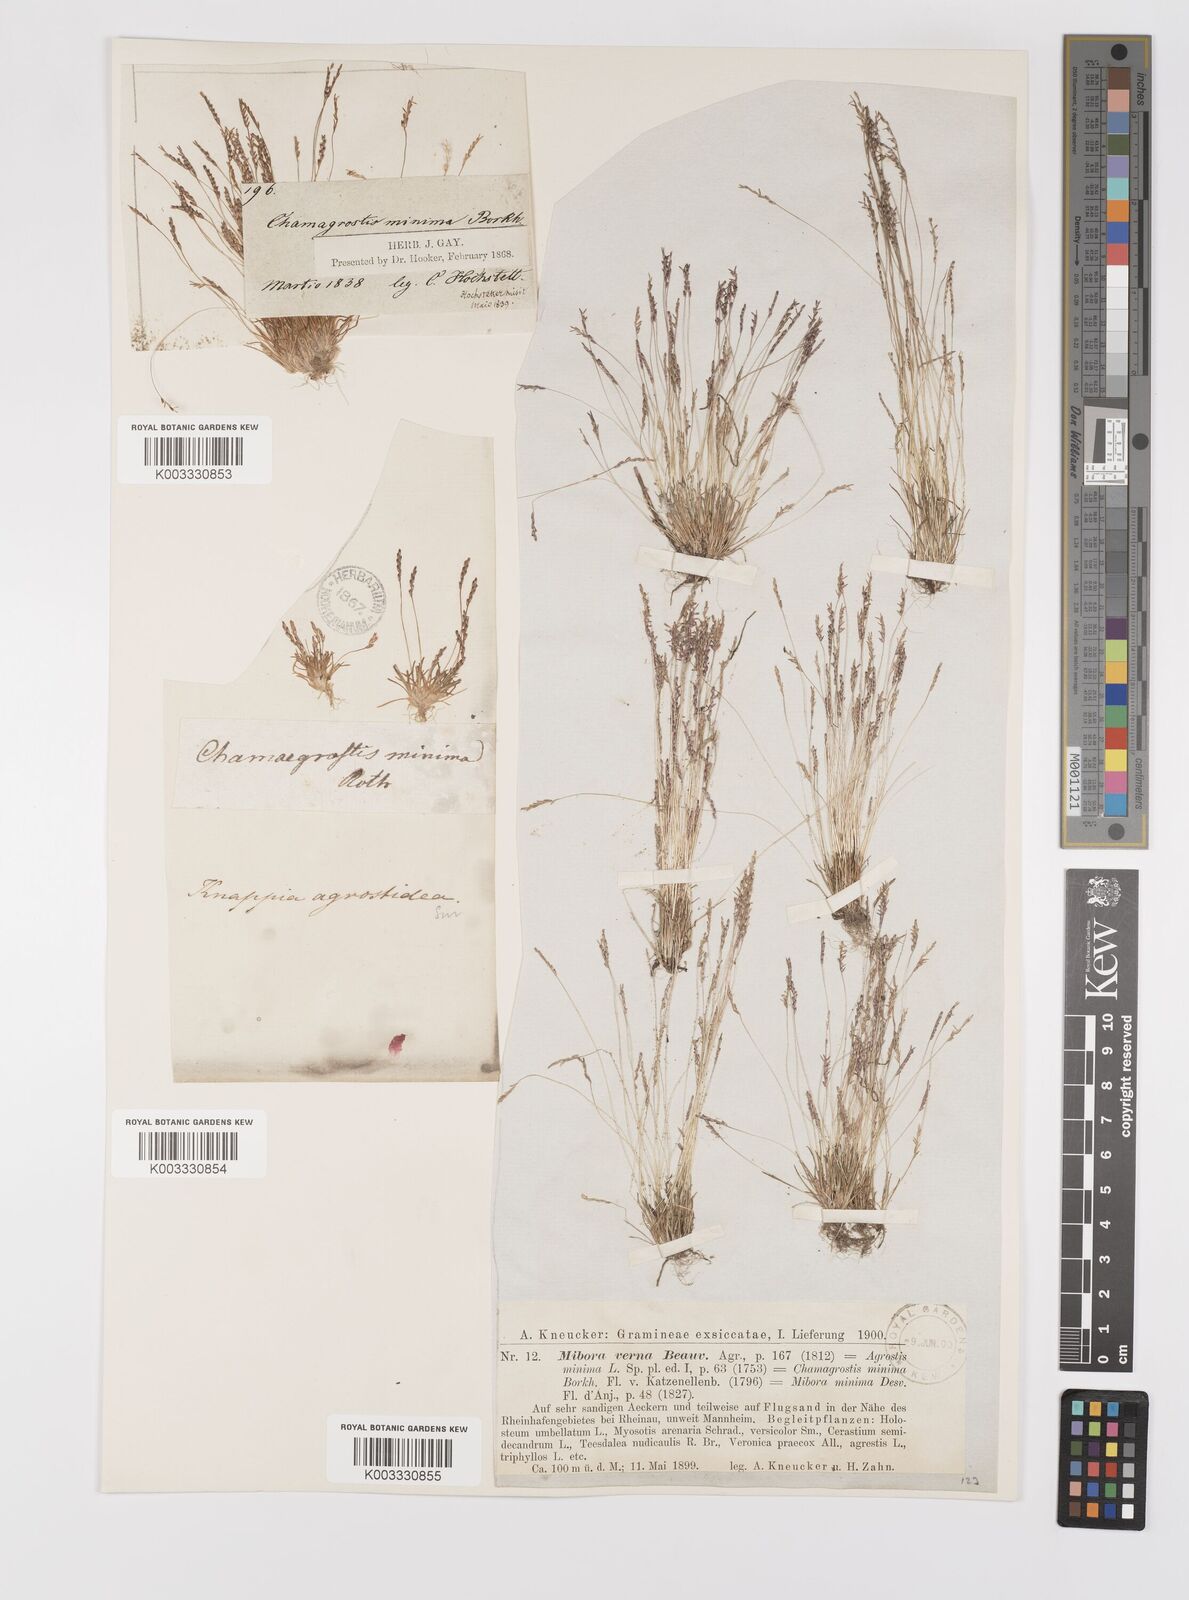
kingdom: Plantae
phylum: Tracheophyta
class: Liliopsida
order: Poales
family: Poaceae
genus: Mibora
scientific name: Mibora minima
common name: Early sand-grass
